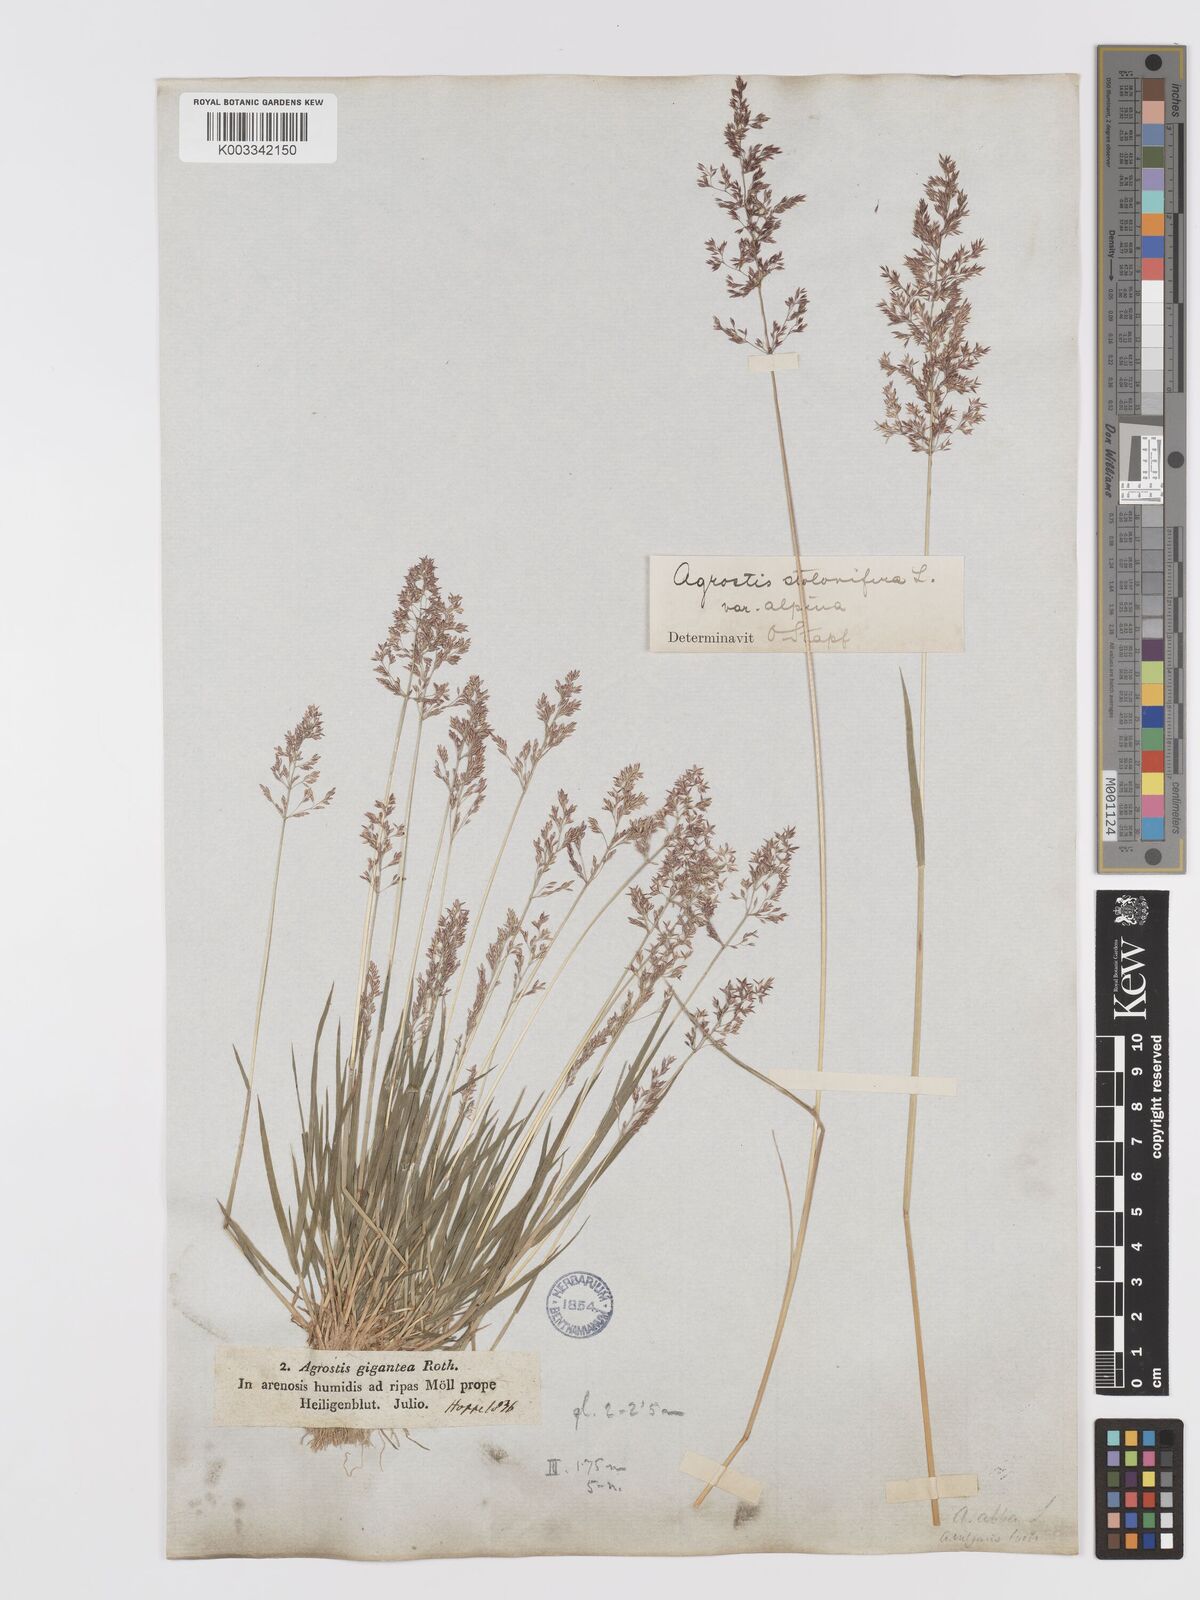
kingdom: Plantae
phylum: Tracheophyta
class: Liliopsida
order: Poales
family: Poaceae
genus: Agrostis
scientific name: Agrostis stolonifera
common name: Creeping bentgrass
